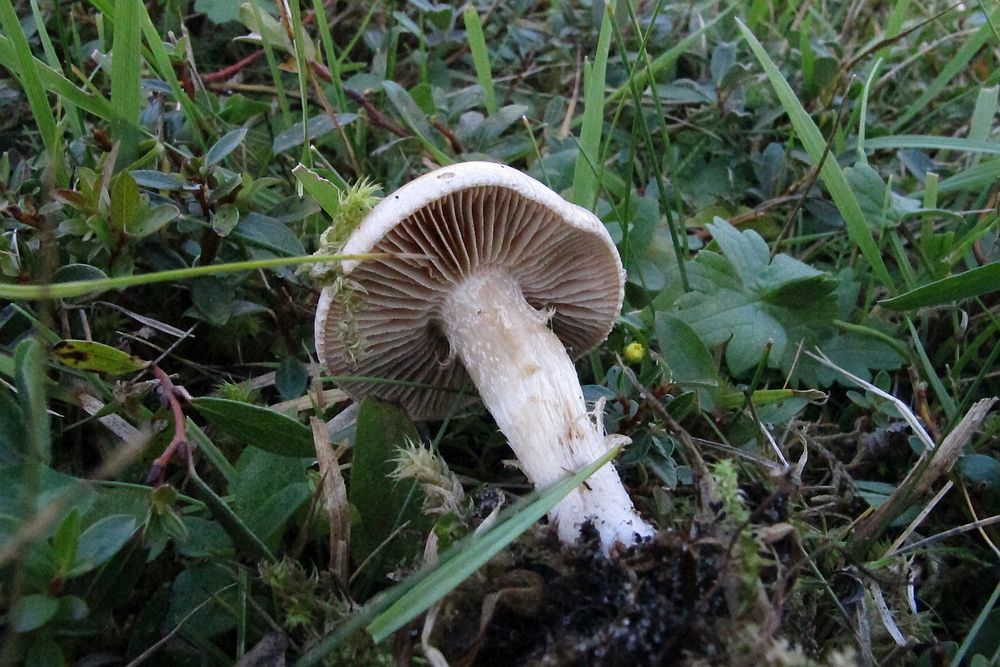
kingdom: Fungi
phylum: Basidiomycota
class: Agaricomycetes
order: Agaricales
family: Hymenogastraceae
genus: Hebeloma
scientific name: Hebeloma
